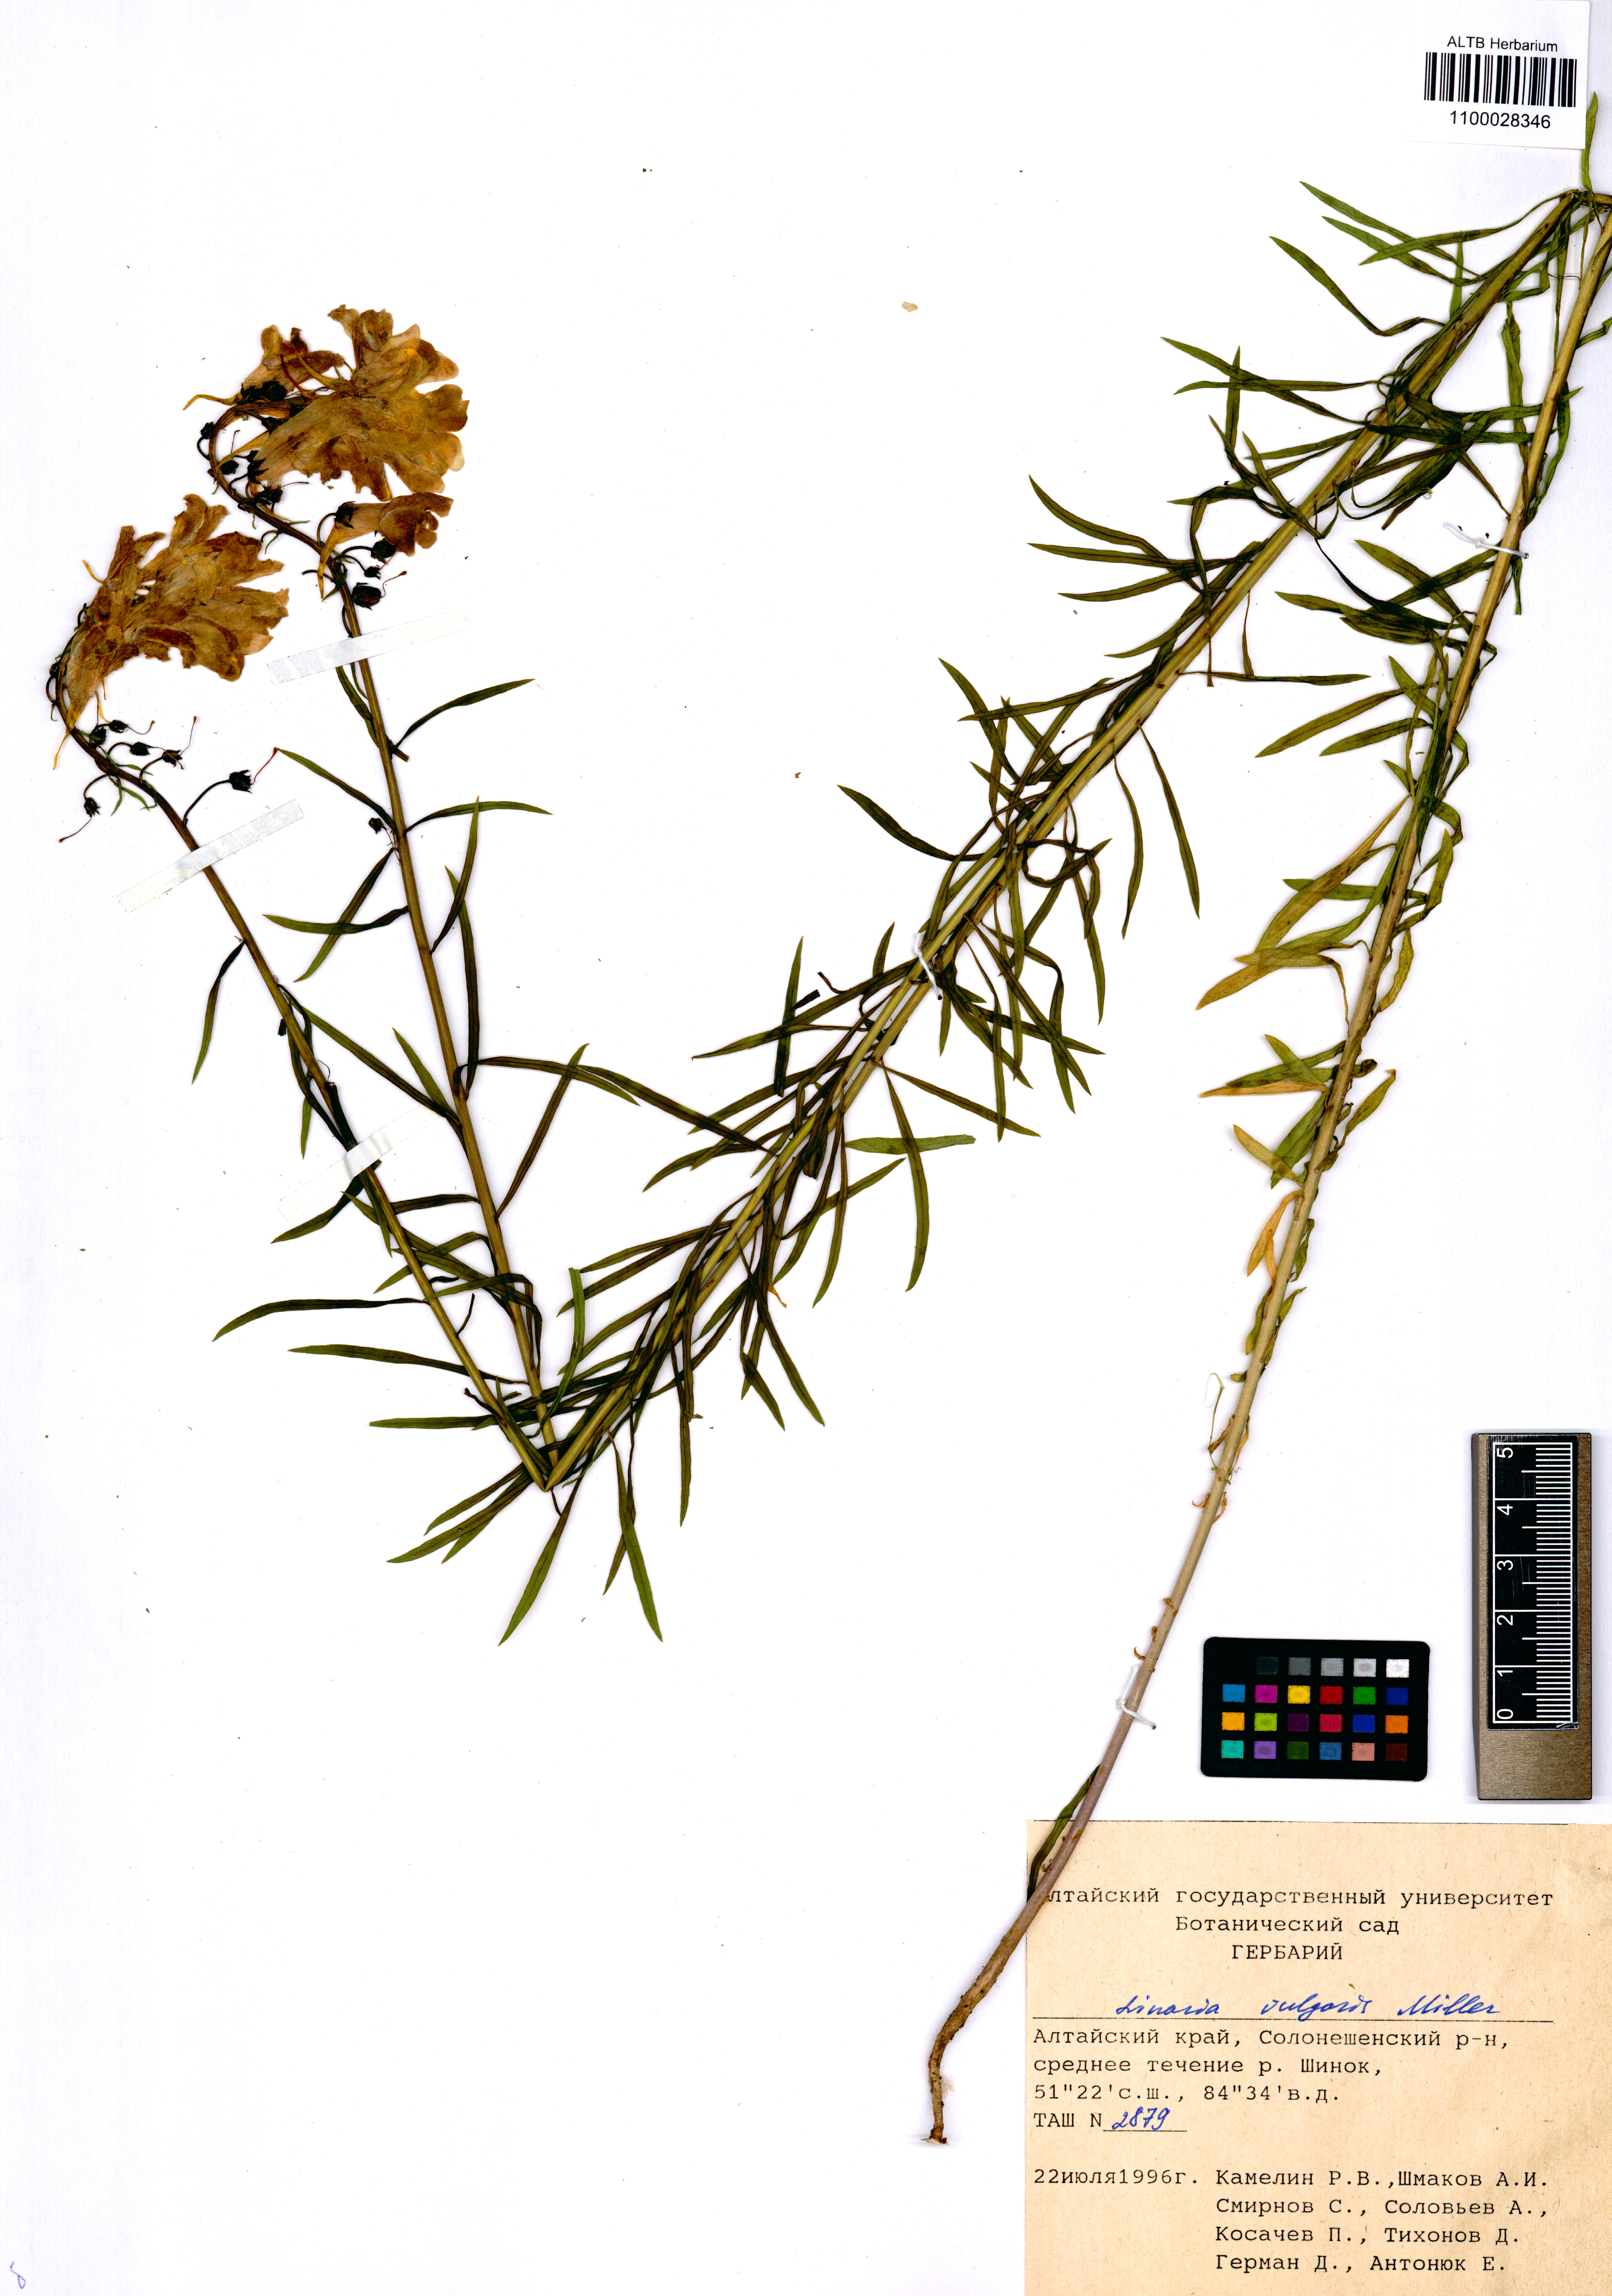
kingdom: Plantae
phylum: Tracheophyta
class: Magnoliopsida
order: Lamiales
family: Plantaginaceae
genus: Linaria
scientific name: Linaria vulgaris
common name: Butter and eggs
